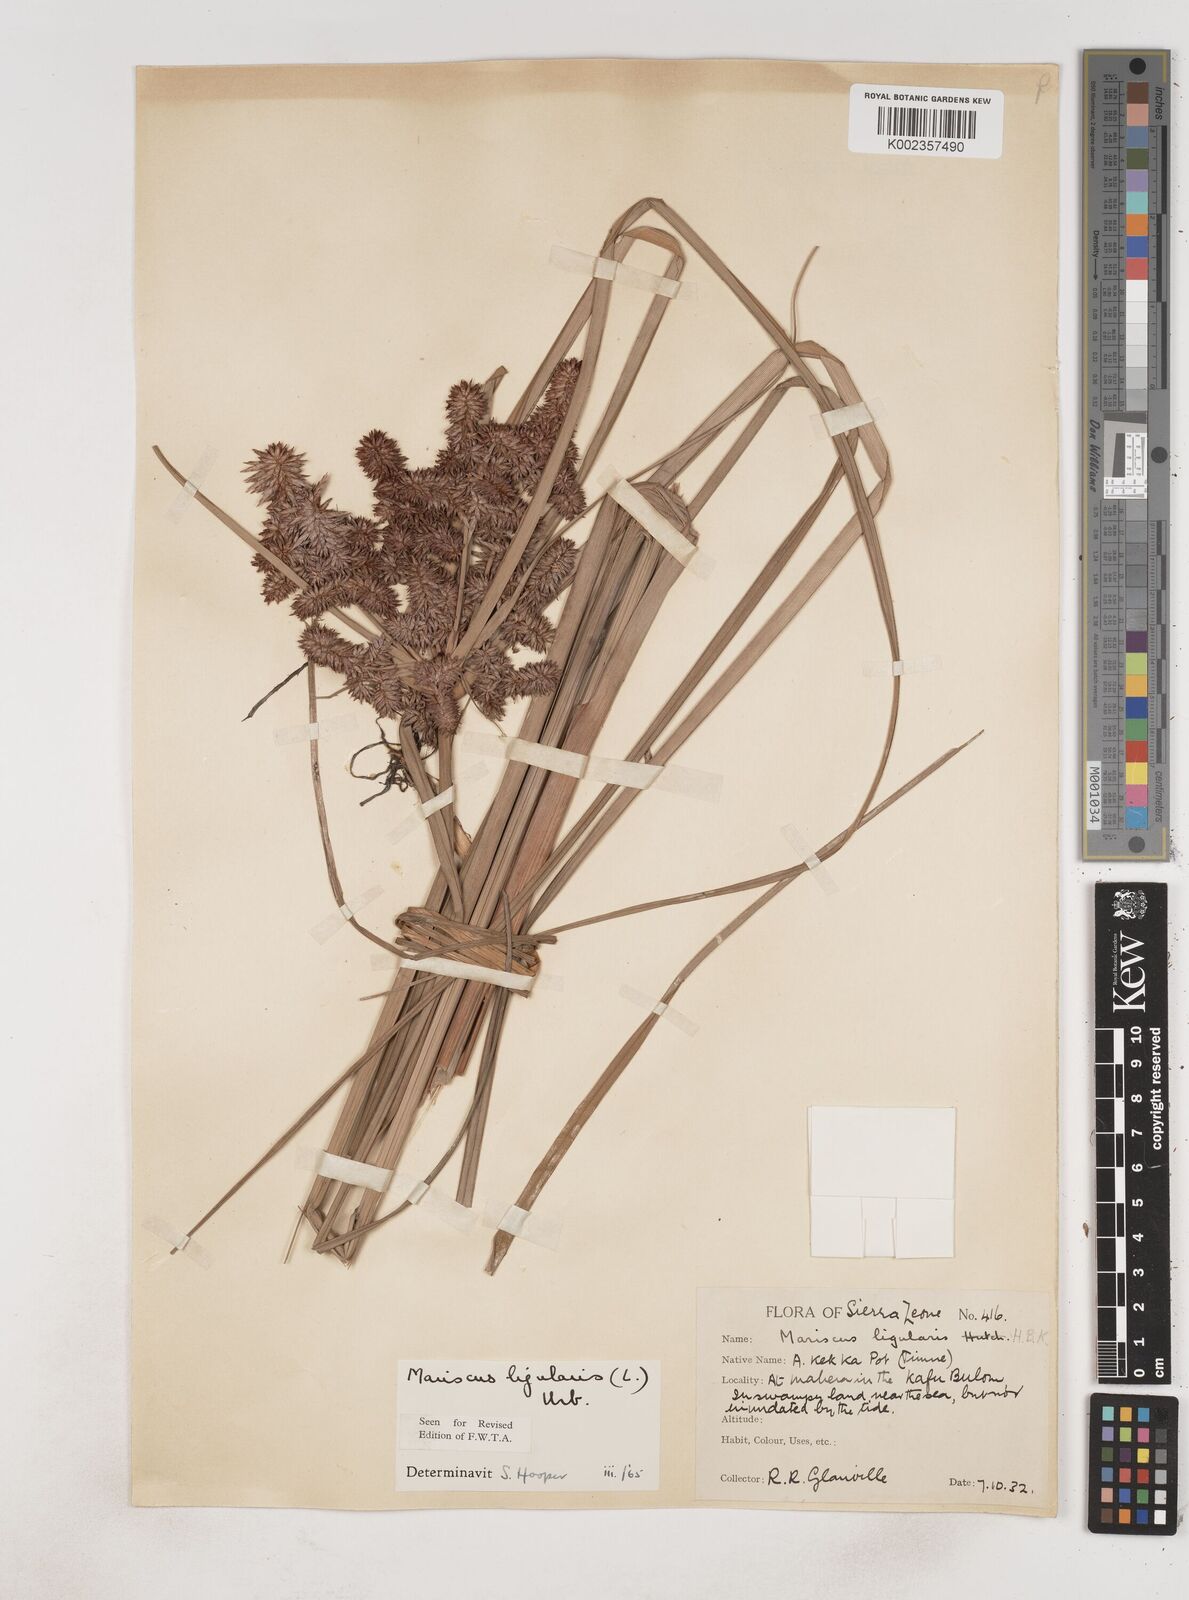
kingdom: Plantae
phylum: Tracheophyta
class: Liliopsida
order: Poales
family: Cyperaceae
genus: Cyperus
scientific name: Cyperus ligularis
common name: Swamp flat sedge
